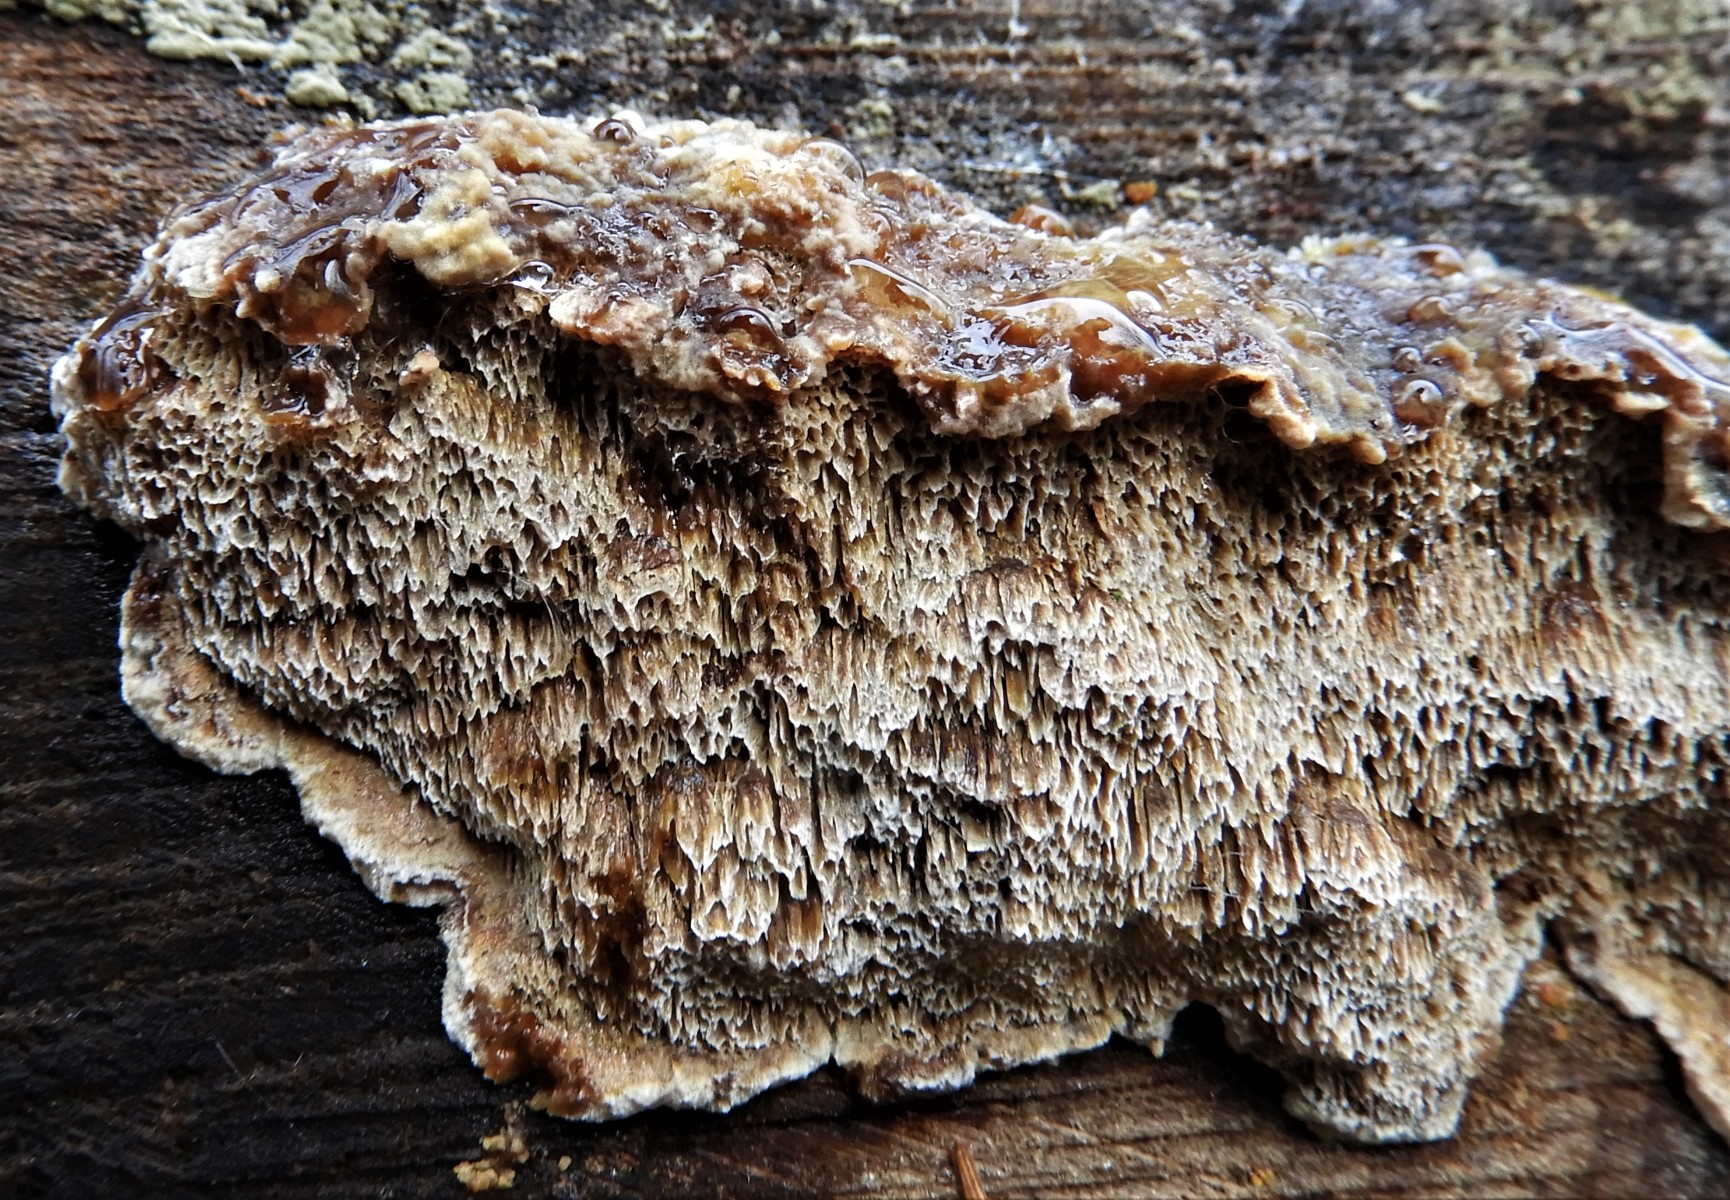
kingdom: Fungi
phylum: Basidiomycota
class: Agaricomycetes
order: Hymenochaetales
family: Hymenochaetaceae
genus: Mensularia
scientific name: Mensularia nodulosa
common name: bøge-spejlporesvamp
